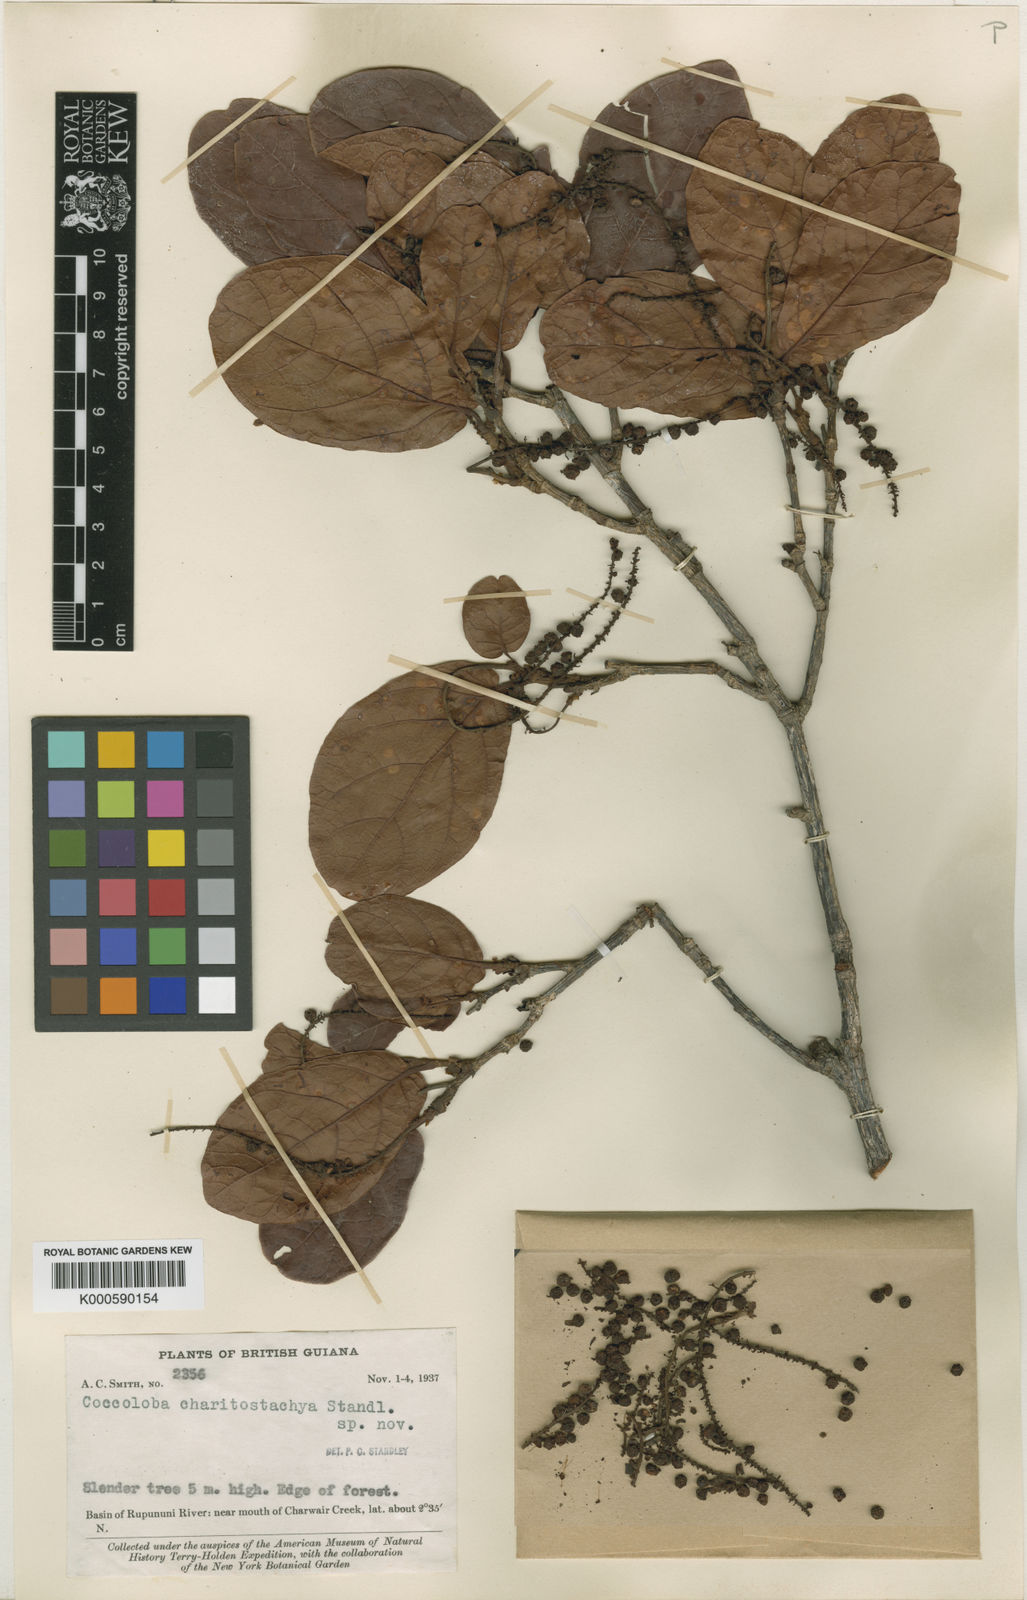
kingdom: Plantae
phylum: Tracheophyta
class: Magnoliopsida
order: Caryophyllales
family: Polygonaceae
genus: Coccoloba
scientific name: Coccoloba charitostachya
